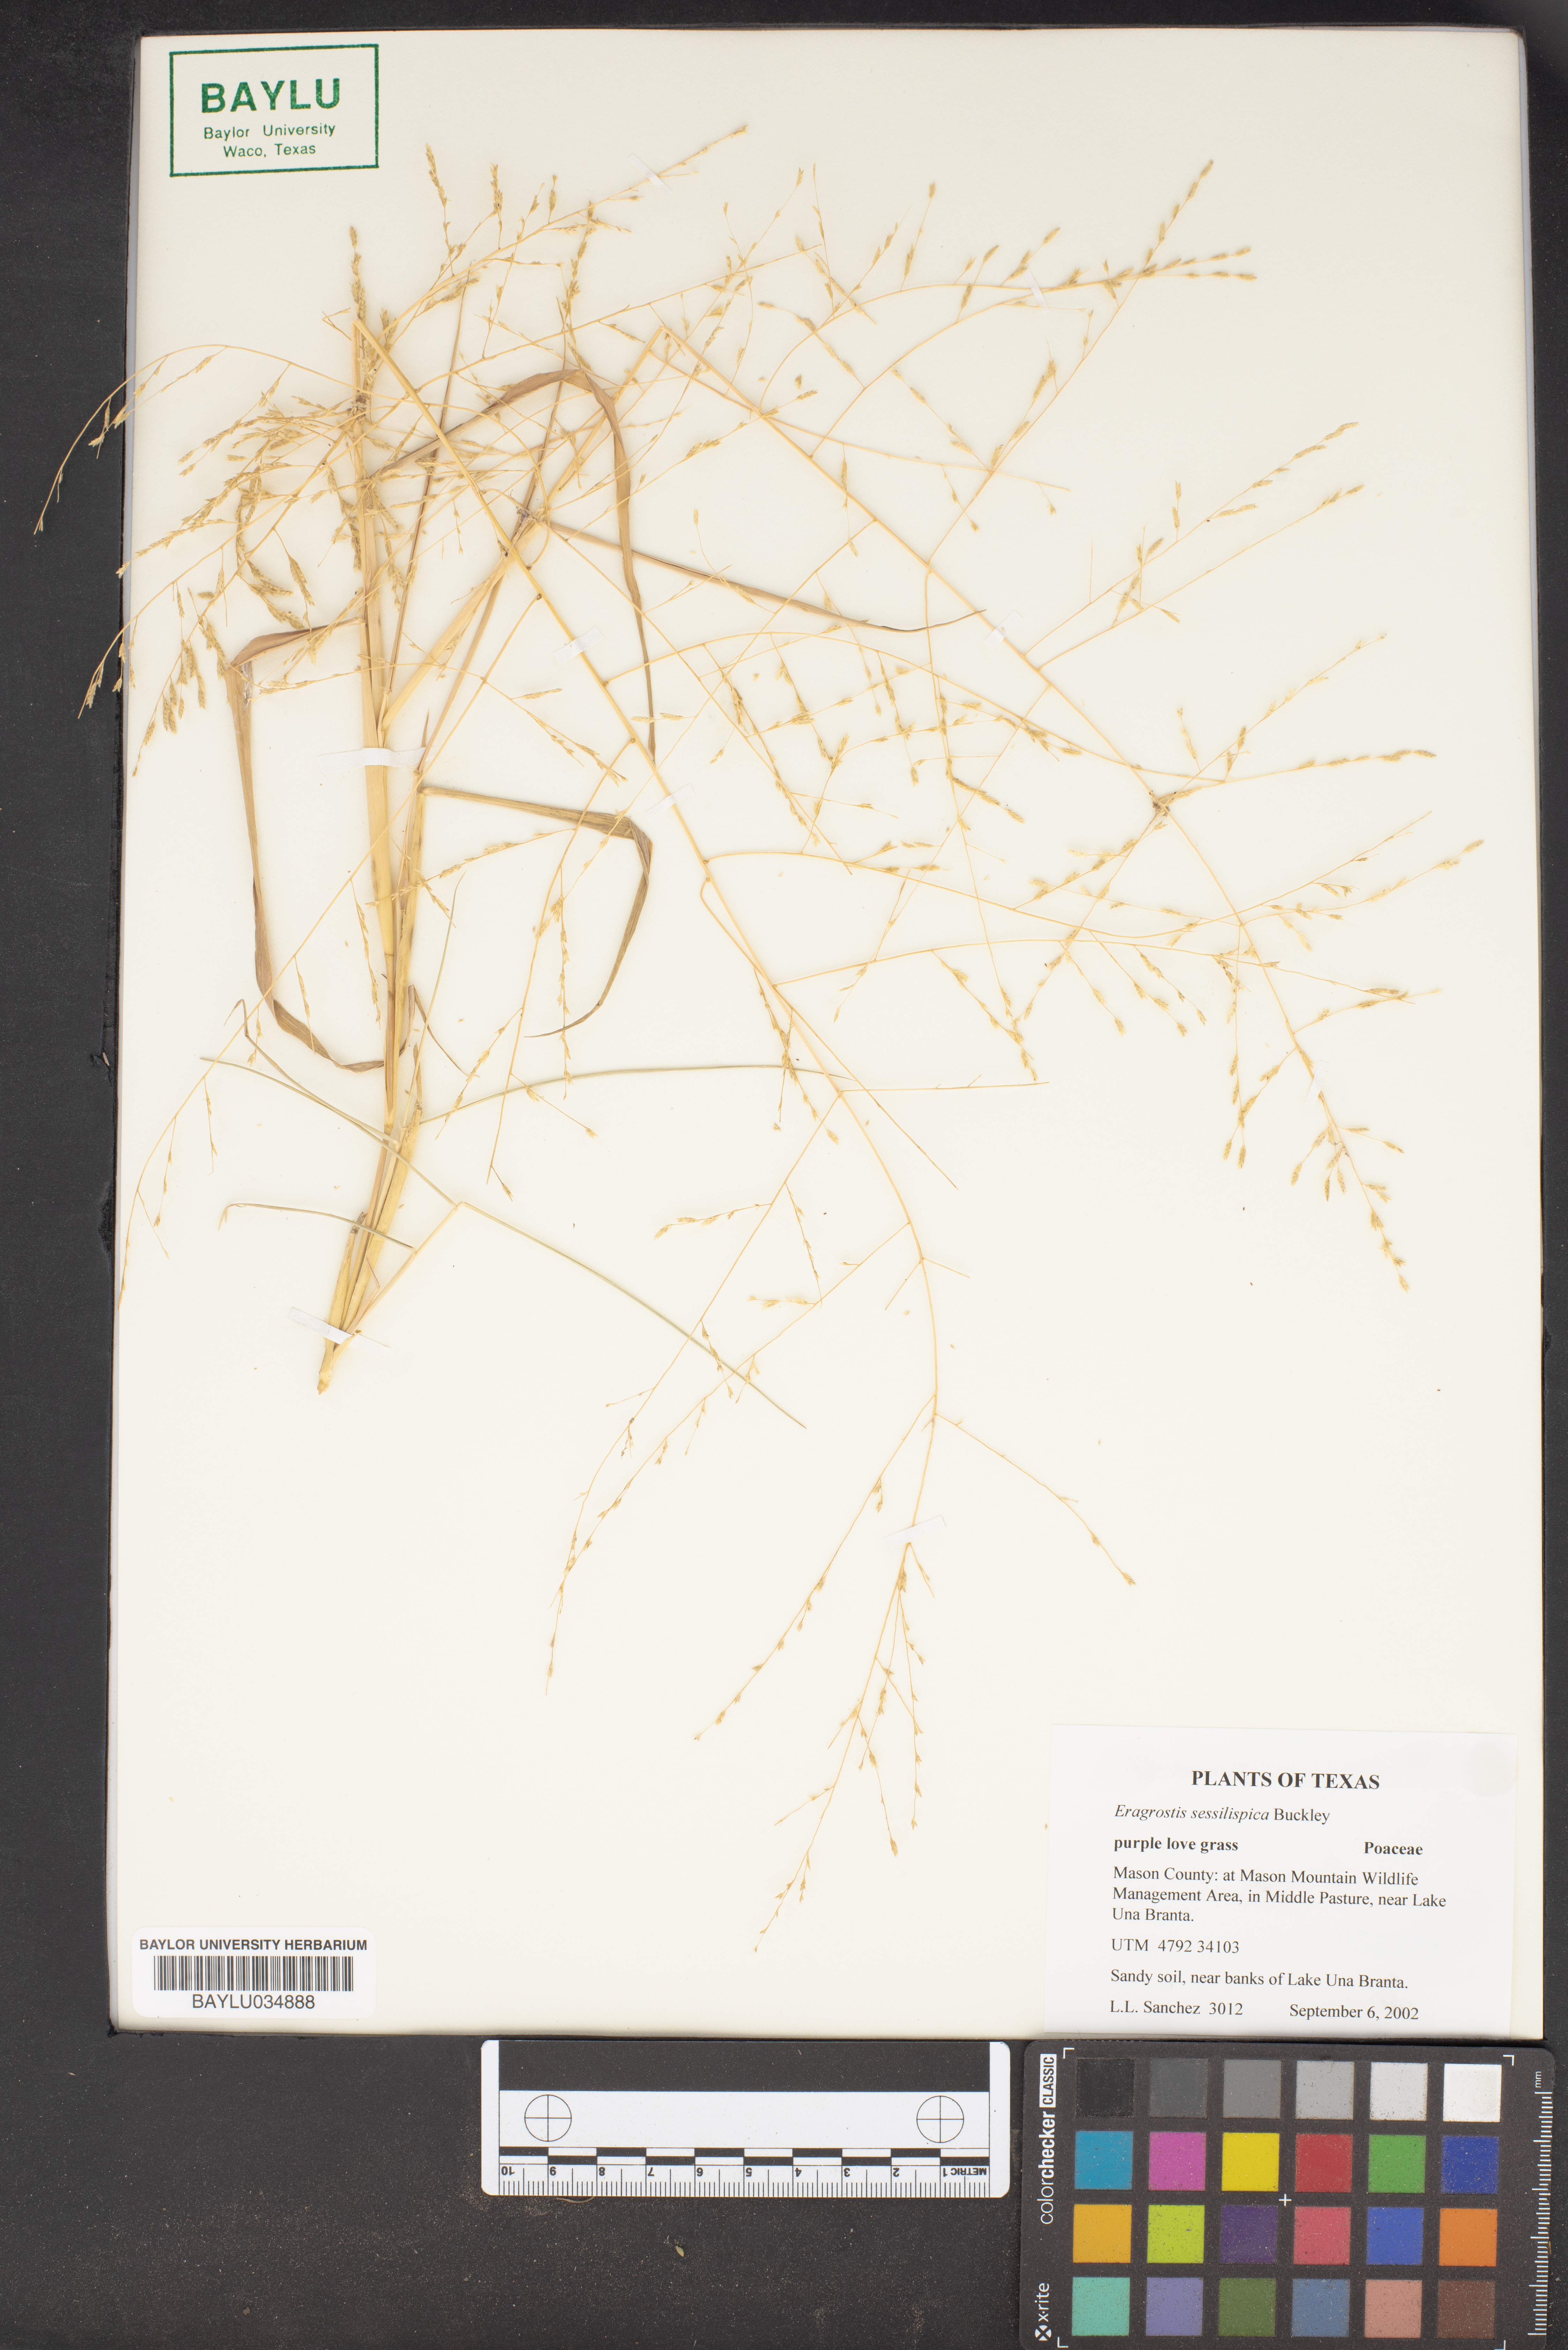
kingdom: Plantae
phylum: Tracheophyta
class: Liliopsida
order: Poales
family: Poaceae
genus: Eragrostis
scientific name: Eragrostis sessilispica
